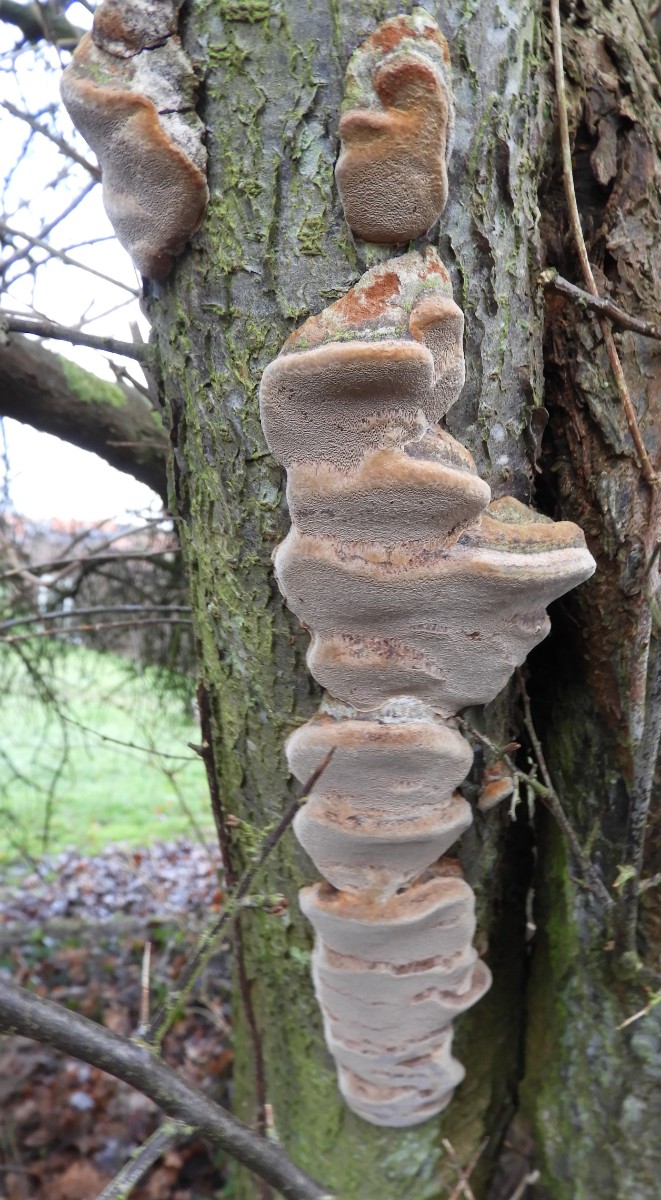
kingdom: Fungi
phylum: Basidiomycota
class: Agaricomycetes
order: Hymenochaetales
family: Hymenochaetaceae
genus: Phellinus
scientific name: Phellinus pomaceus
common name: blomme-ildporesvamp
